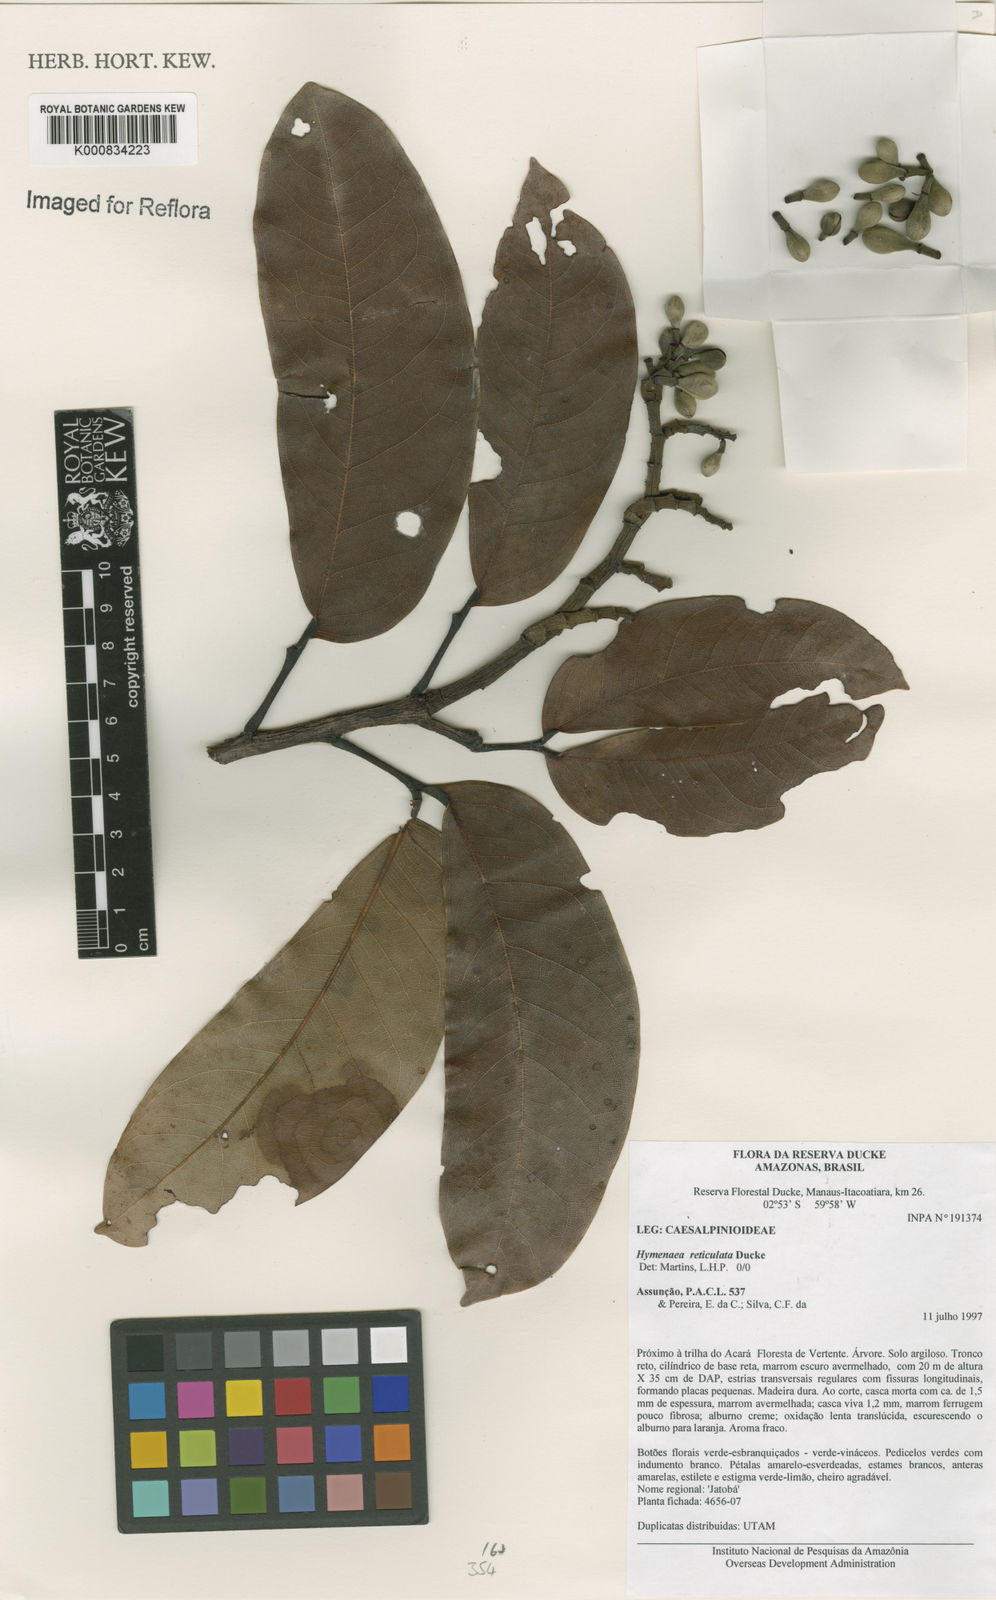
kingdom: Plantae
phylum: Tracheophyta
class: Magnoliopsida
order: Fabales
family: Fabaceae
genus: Hymenaea
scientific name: Hymenaea reticulata
